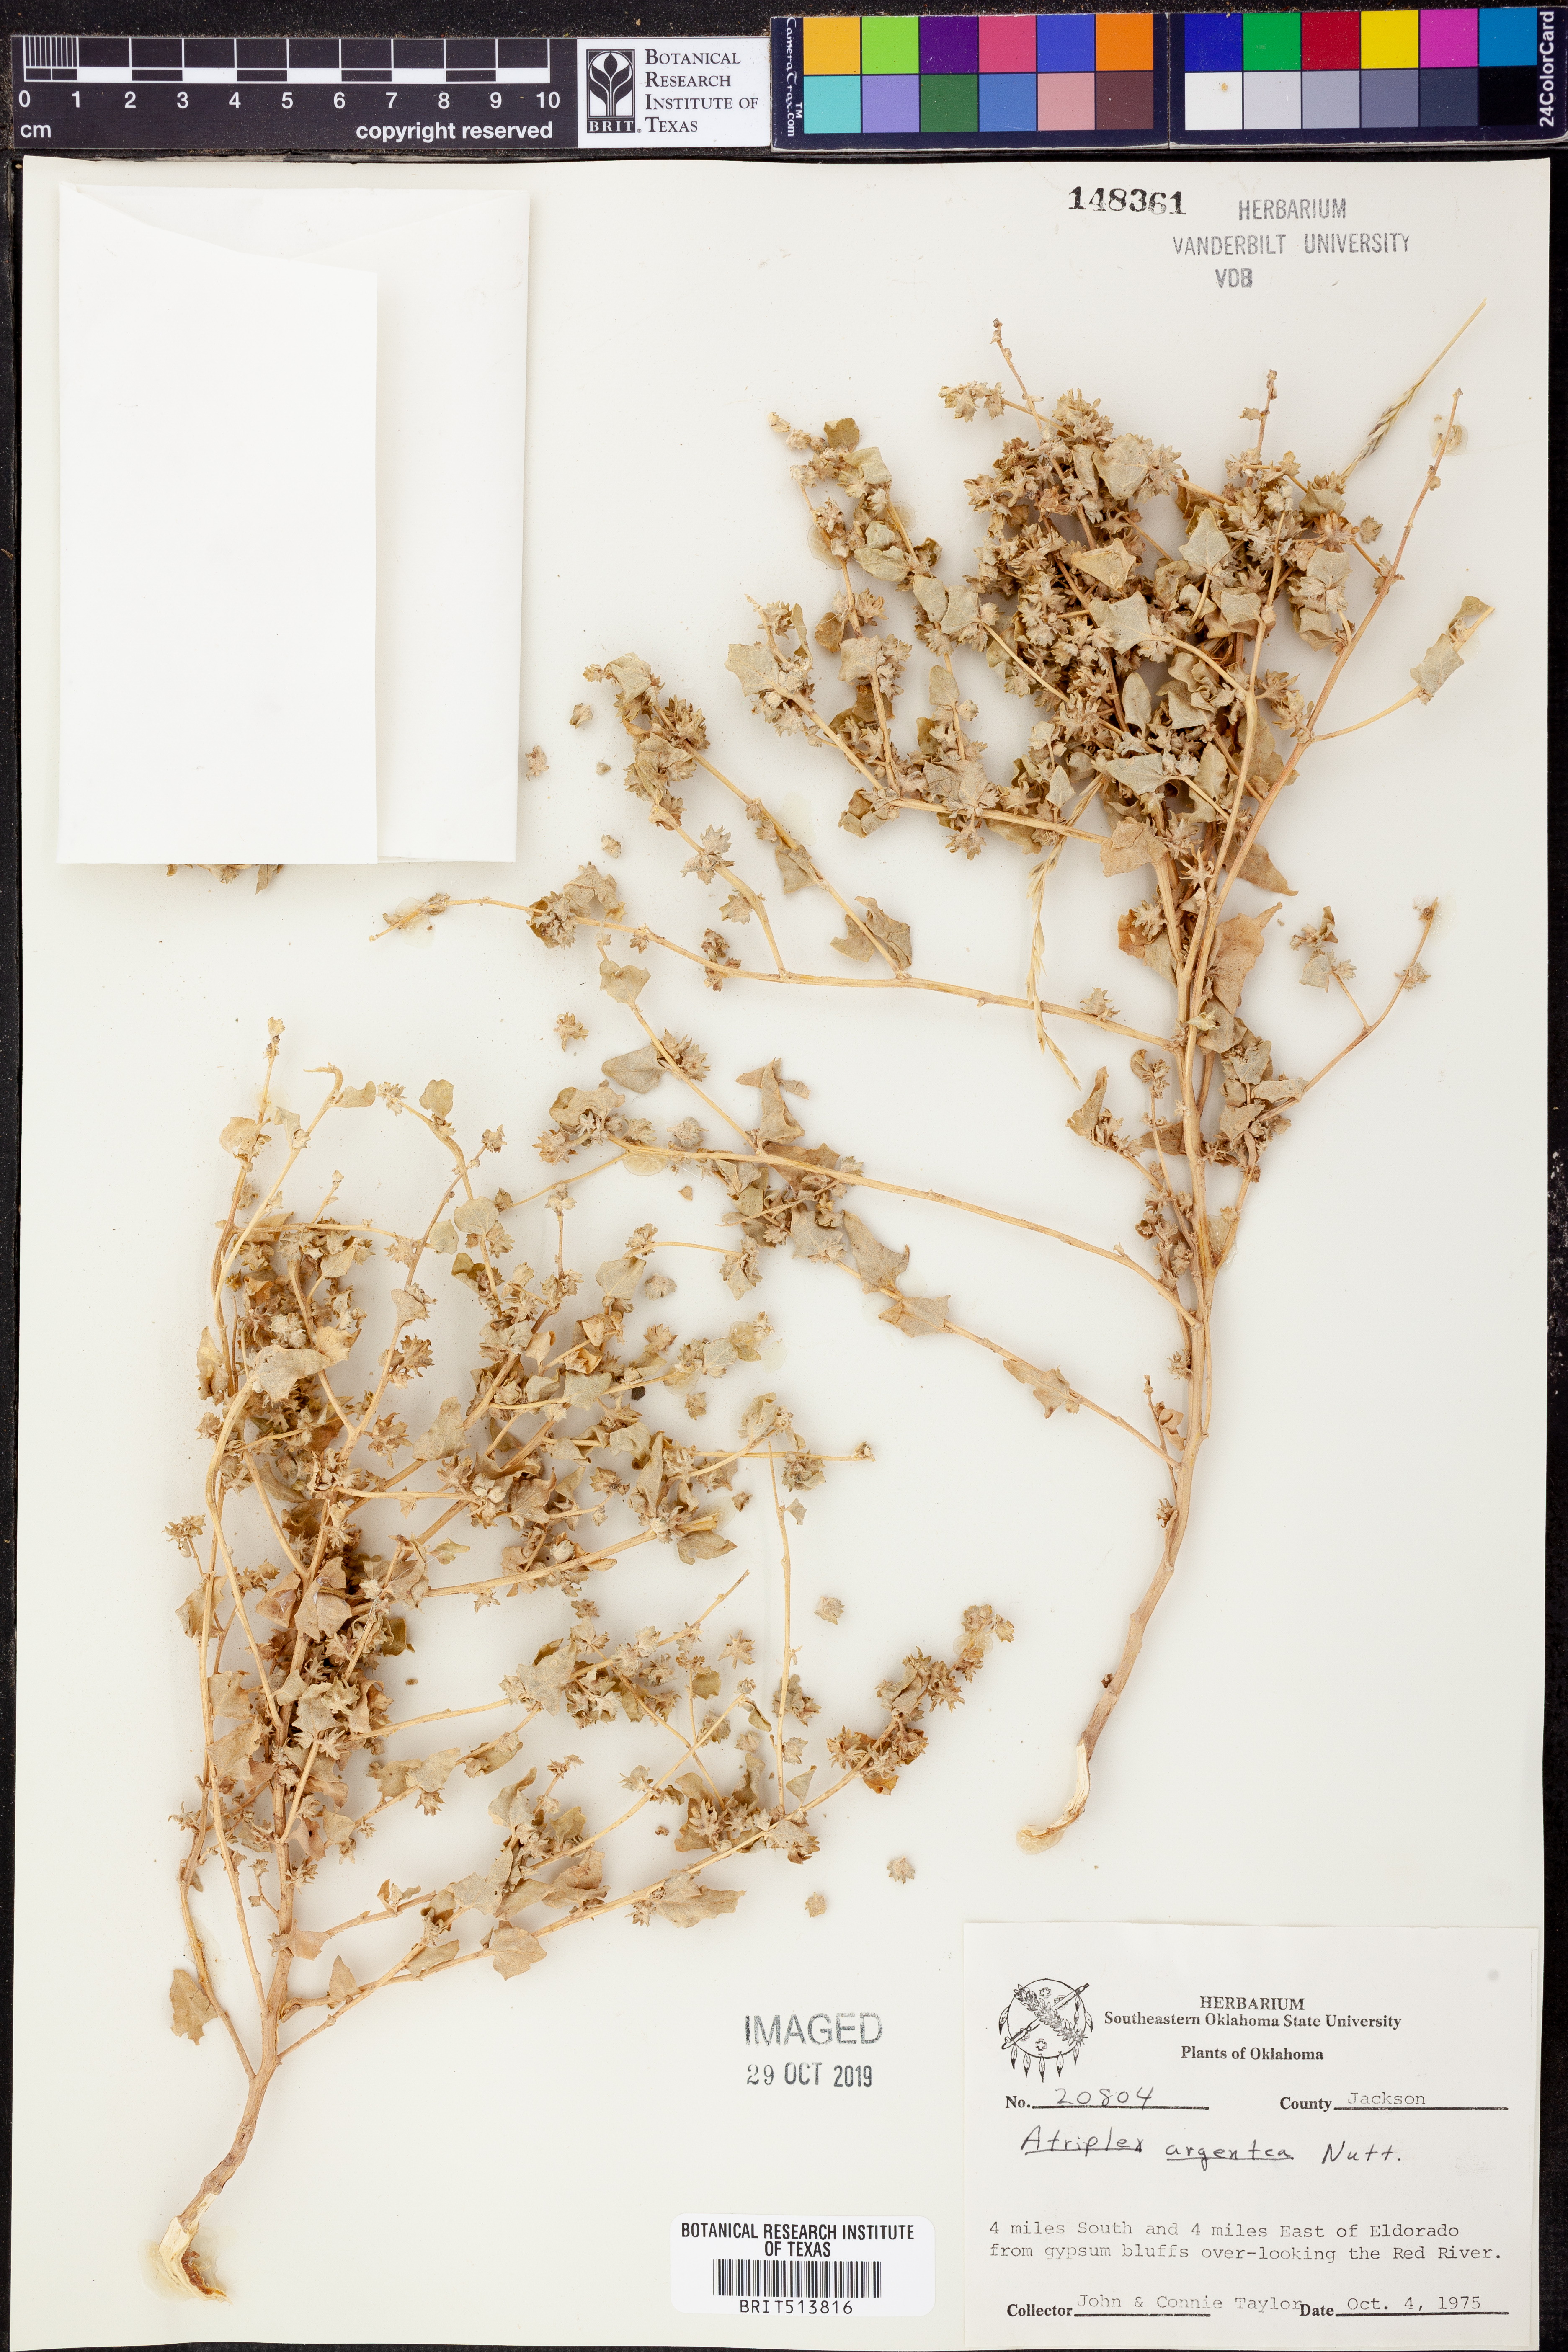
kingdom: Plantae
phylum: Tracheophyta
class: Magnoliopsida
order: Caryophyllales
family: Amaranthaceae
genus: Atriplex
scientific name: Atriplex argentea
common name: Silverscale
